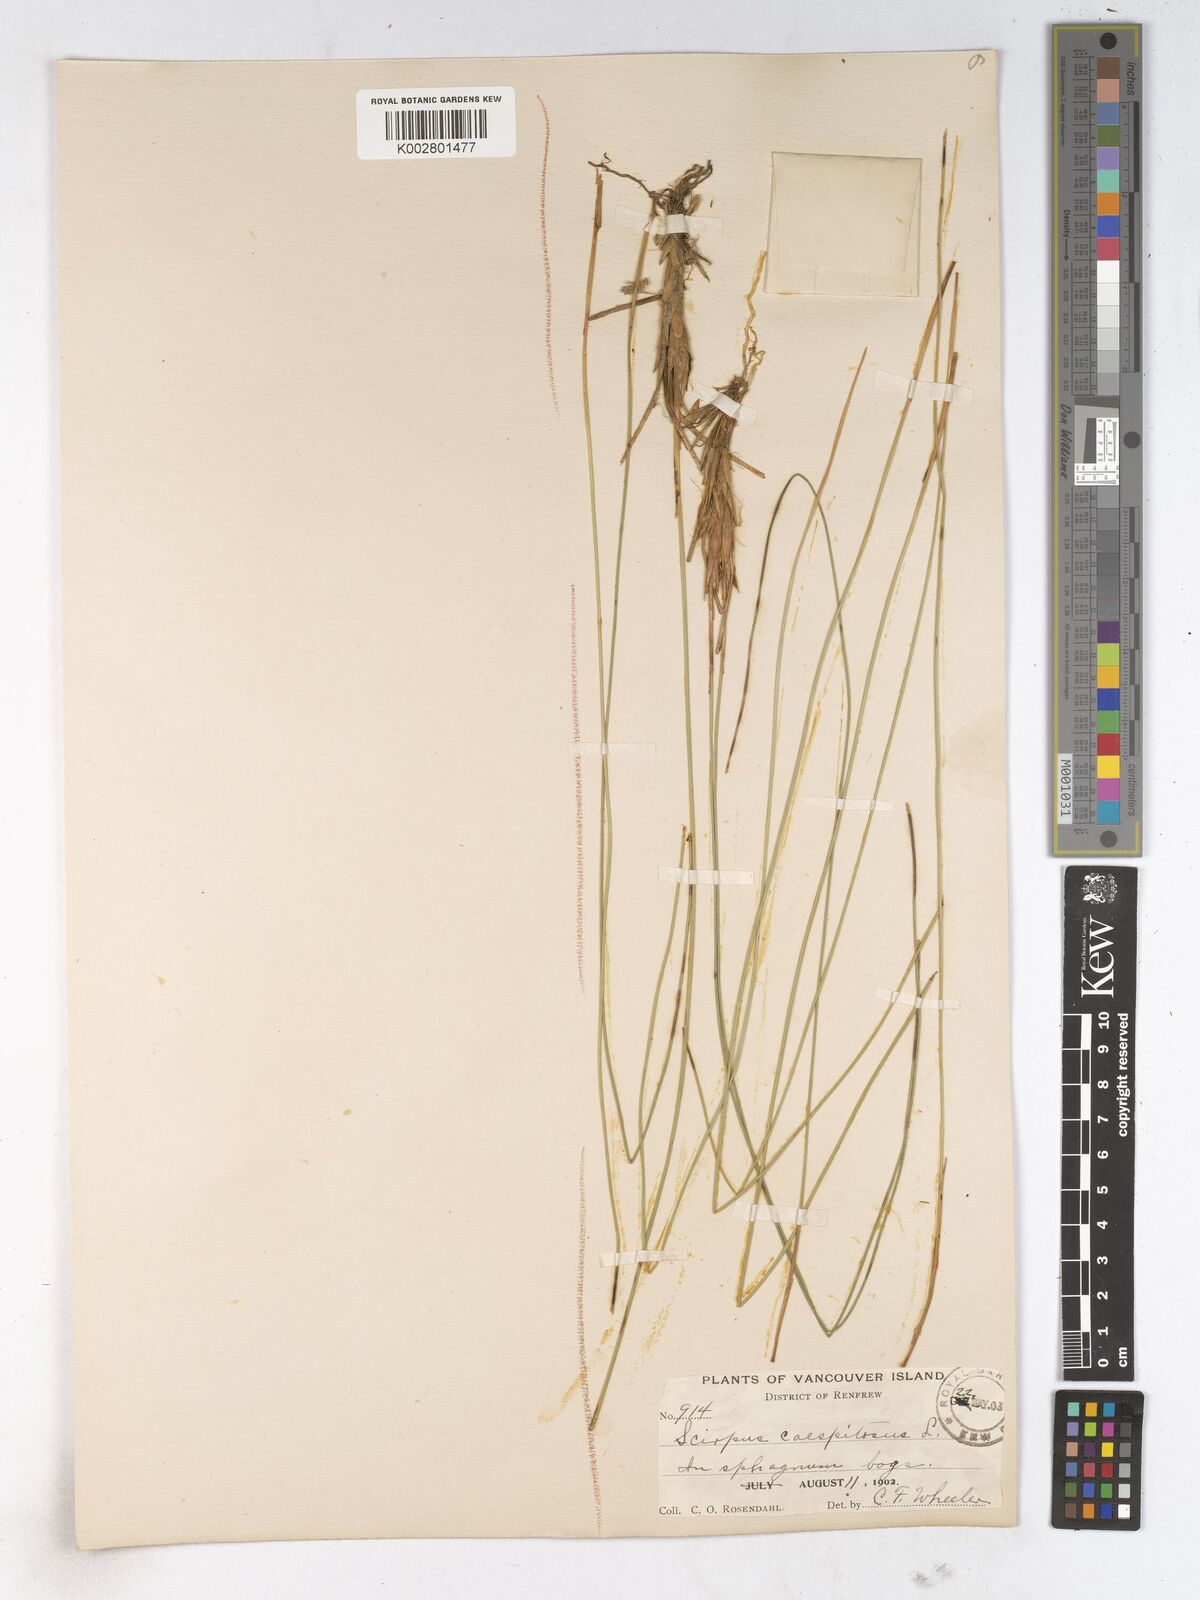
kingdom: Plantae
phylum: Tracheophyta
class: Liliopsida
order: Poales
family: Cyperaceae
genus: Trichophorum
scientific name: Trichophorum cespitosum
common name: Cespitose bulrush
